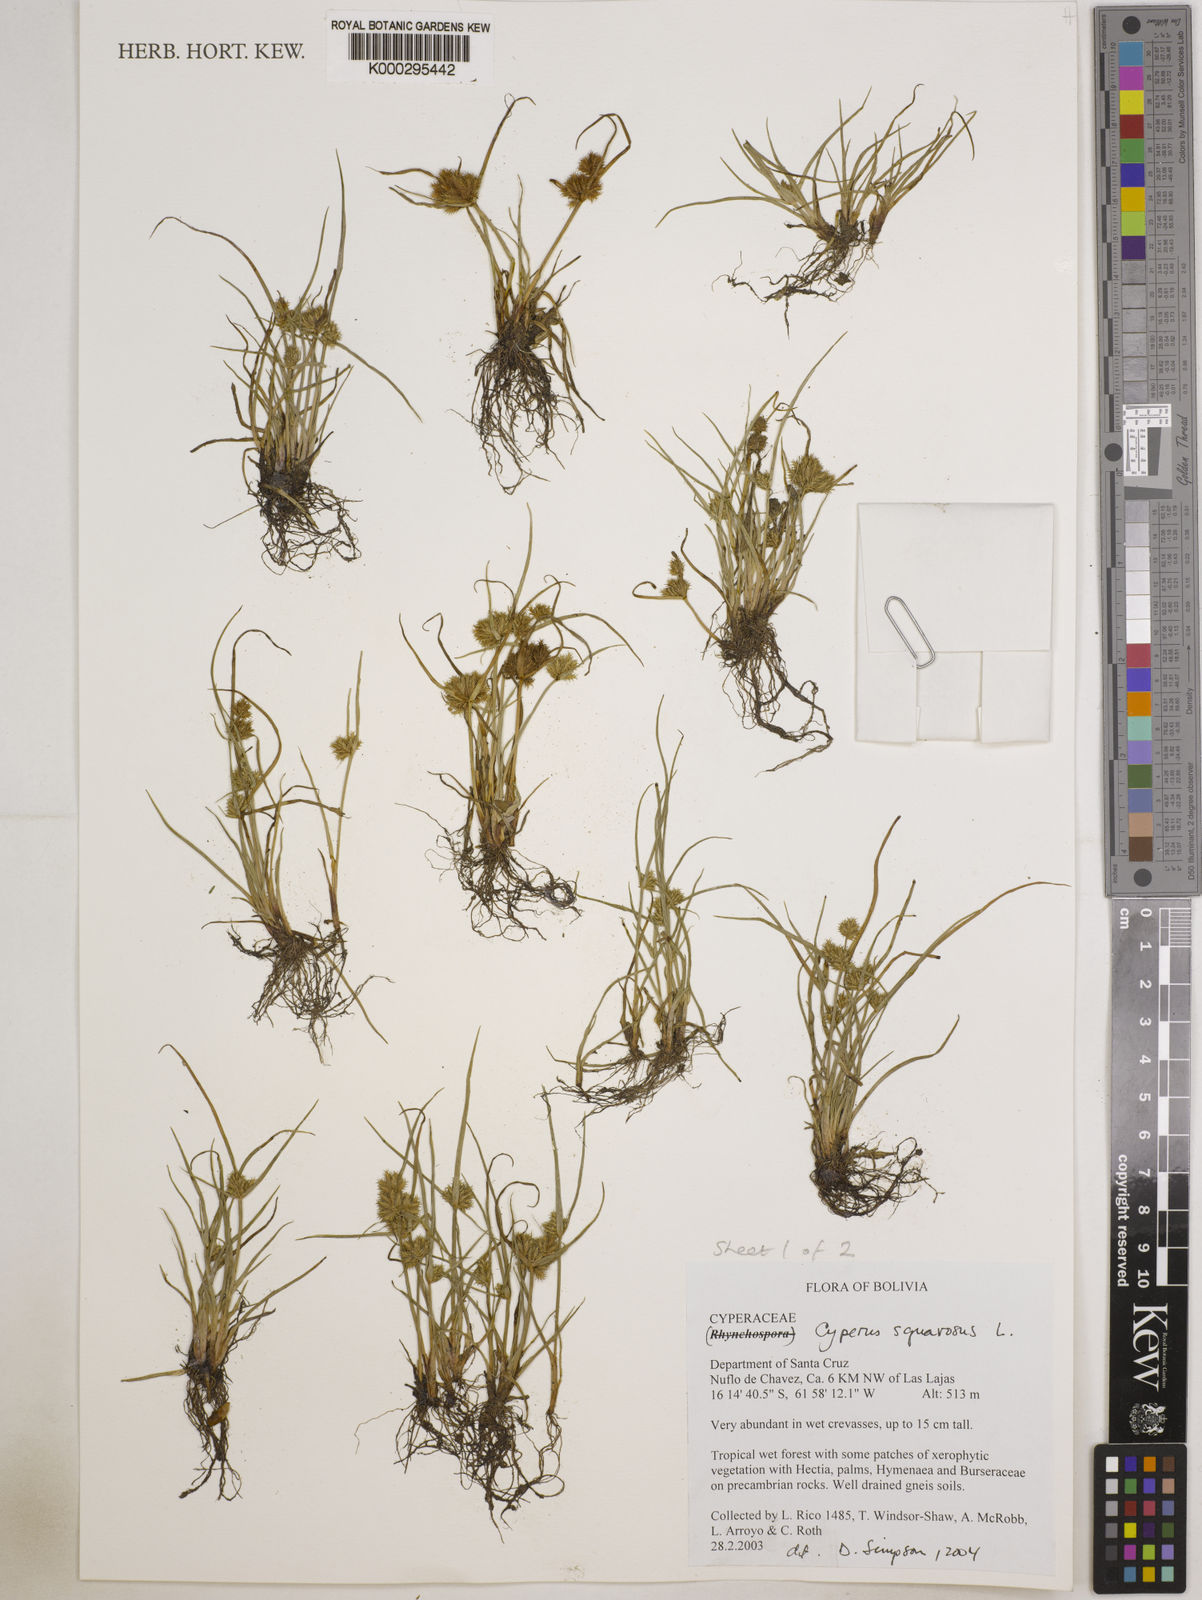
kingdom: Plantae
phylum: Tracheophyta
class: Liliopsida
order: Poales
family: Cyperaceae
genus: Cyperus
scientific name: Cyperus squarrosus
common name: Awned cyperus
